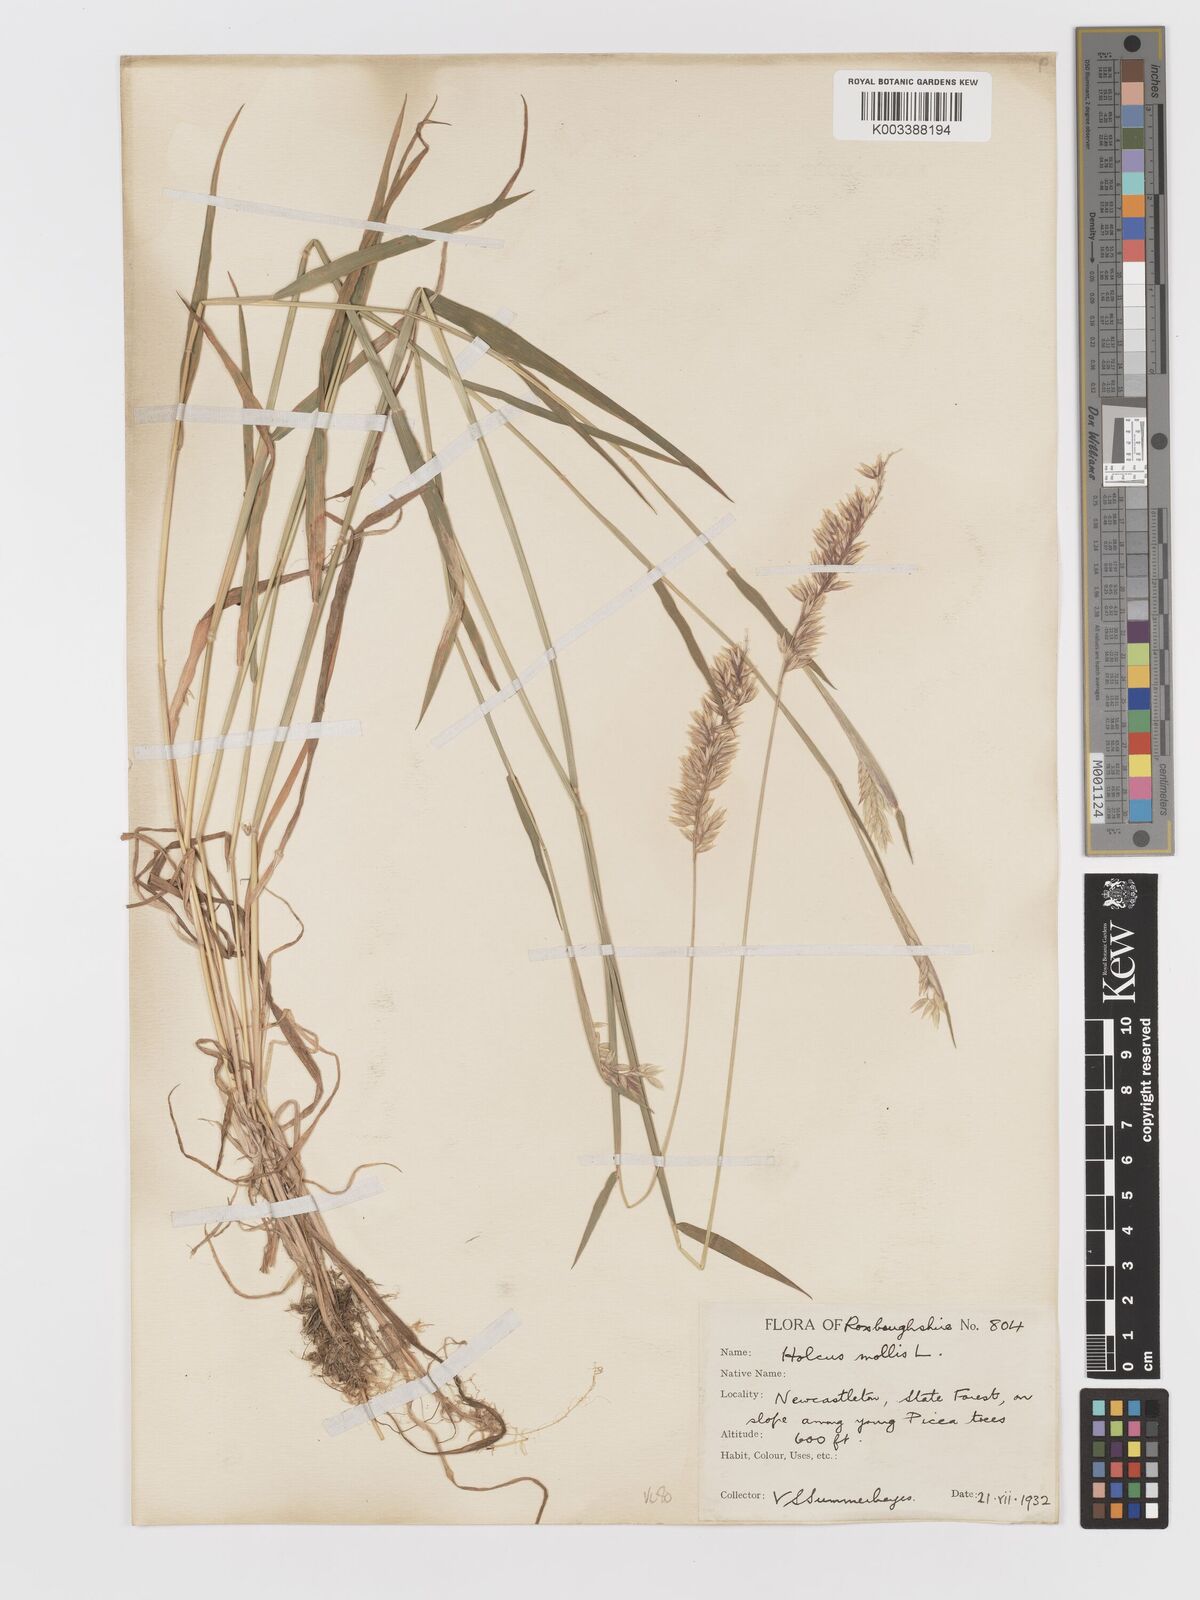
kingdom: Plantae
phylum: Tracheophyta
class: Liliopsida
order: Poales
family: Poaceae
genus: Holcus
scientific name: Holcus mollis
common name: Creeping velvetgrass
